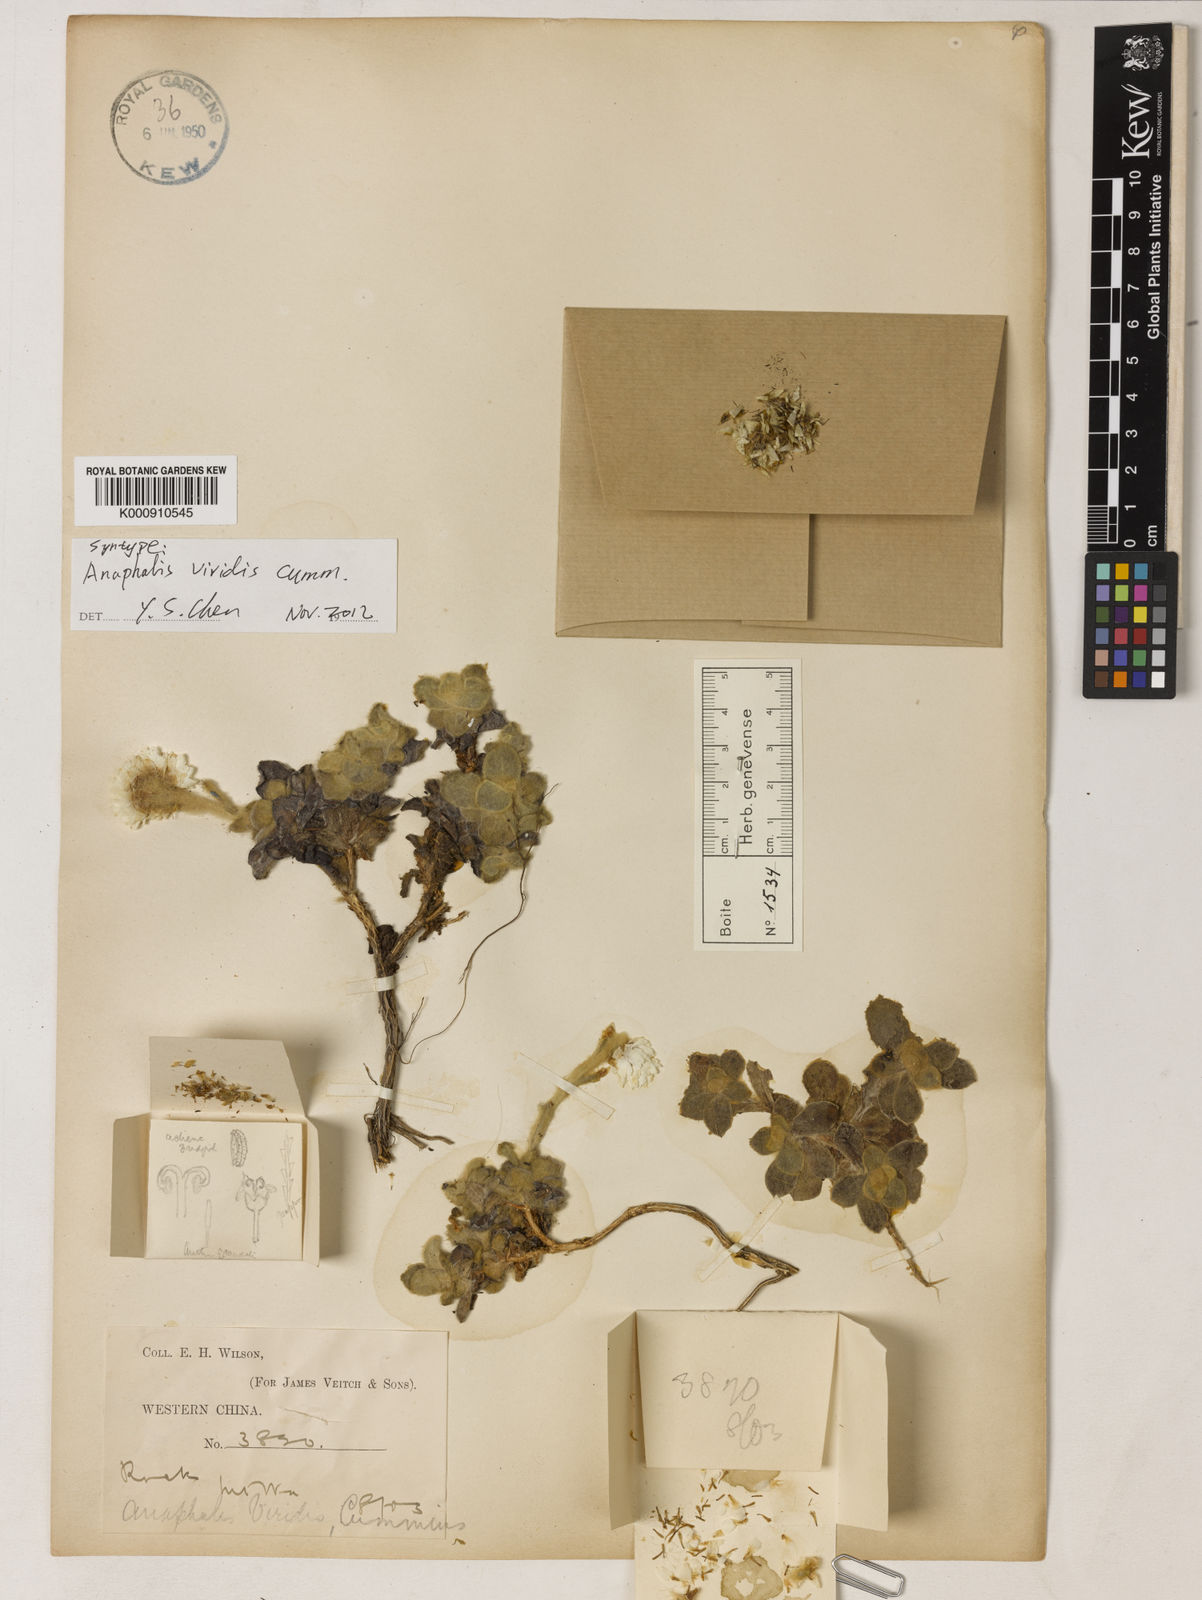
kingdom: Plantae
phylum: Tracheophyta
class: Magnoliopsida
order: Asterales
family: Asteraceae
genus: Anaphalis
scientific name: Anaphalis viridis
